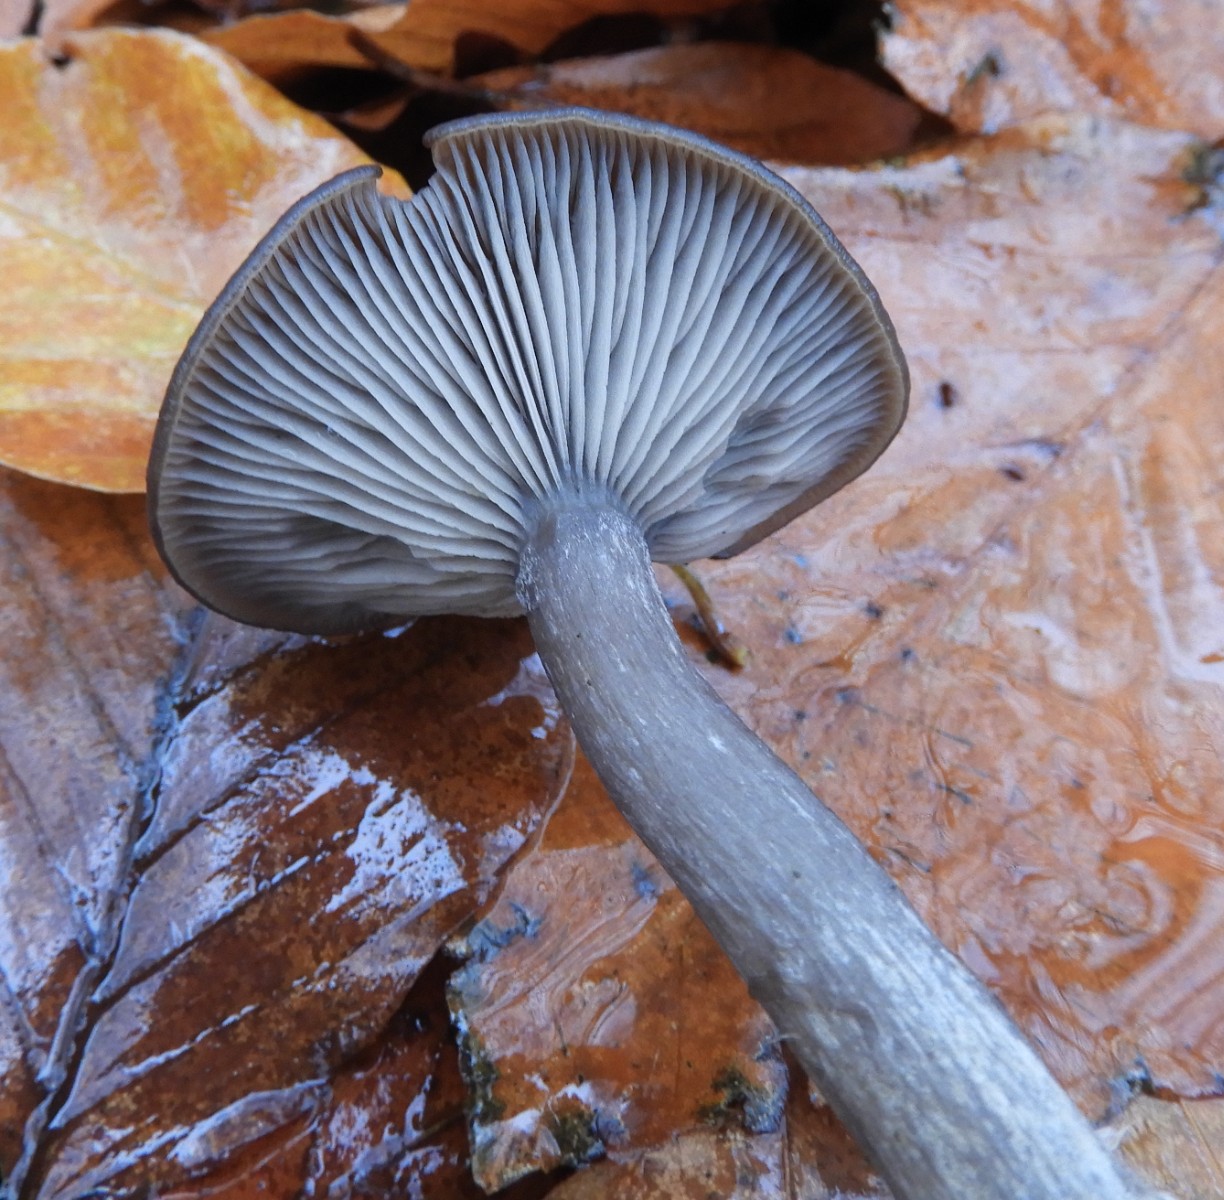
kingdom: Fungi
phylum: Basidiomycota
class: Agaricomycetes
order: Agaricales
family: Pseudoclitocybaceae
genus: Pseudoclitocybe
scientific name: Pseudoclitocybe cyathiformis
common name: almindelig bægertragthat
